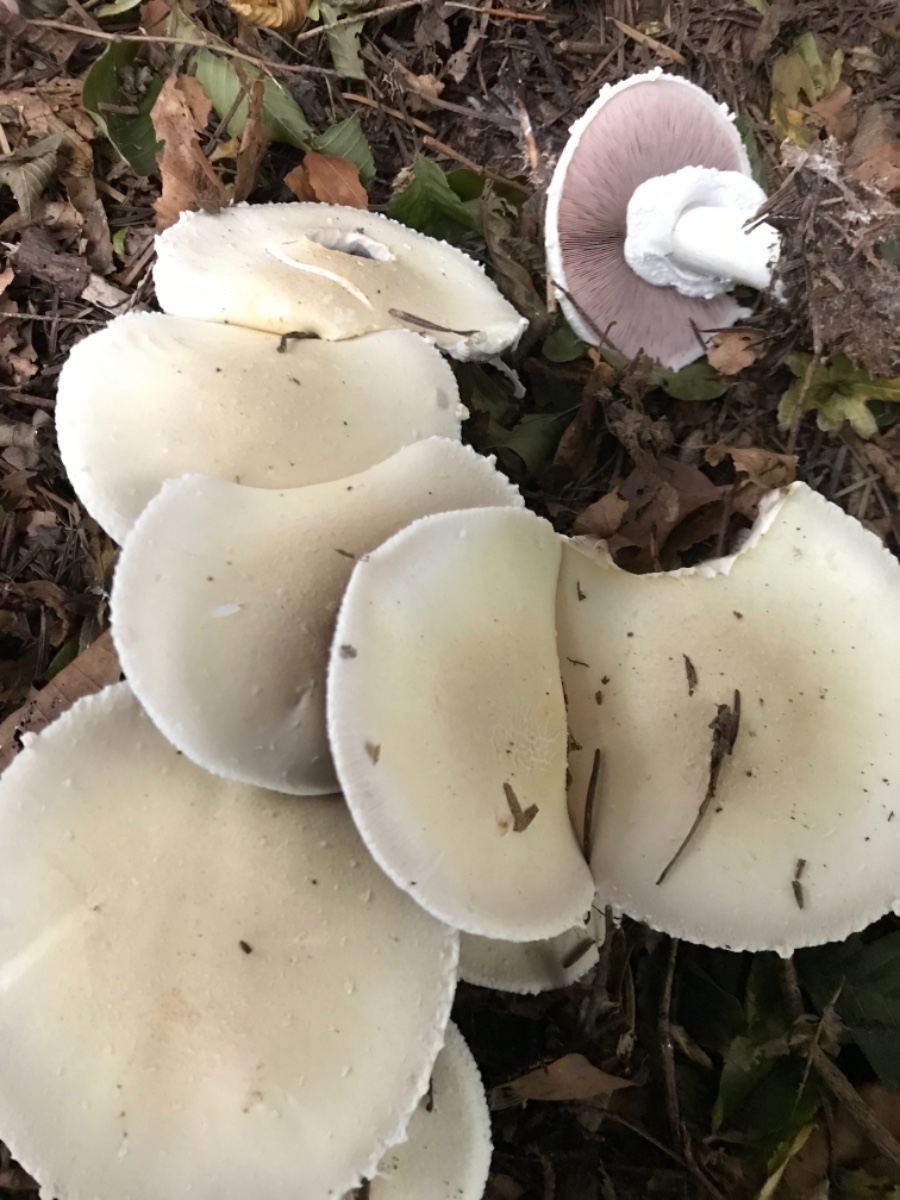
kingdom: Fungi
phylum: Basidiomycota
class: Agaricomycetes
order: Agaricales
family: Agaricaceae
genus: Agaricus
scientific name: Agaricus
